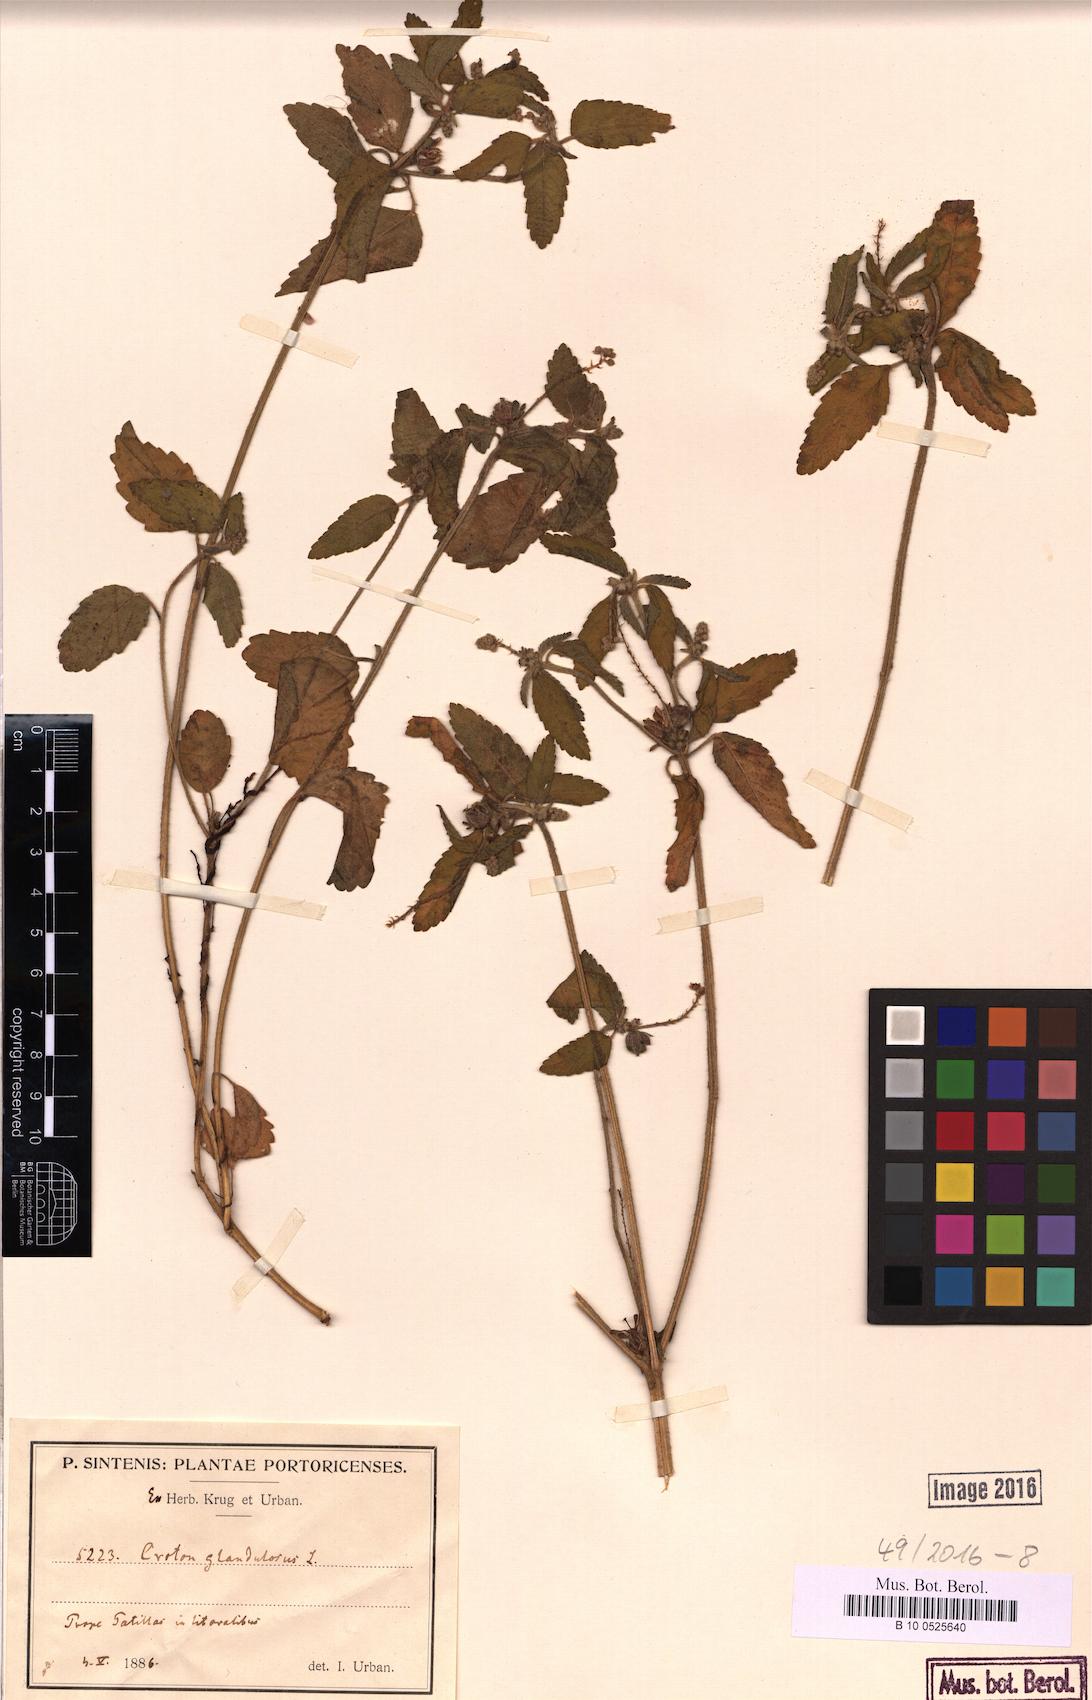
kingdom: Plantae
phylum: Tracheophyta
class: Magnoliopsida
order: Malpighiales
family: Euphorbiaceae
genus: Croton
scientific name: Croton glandulosus
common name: Tropic croton
